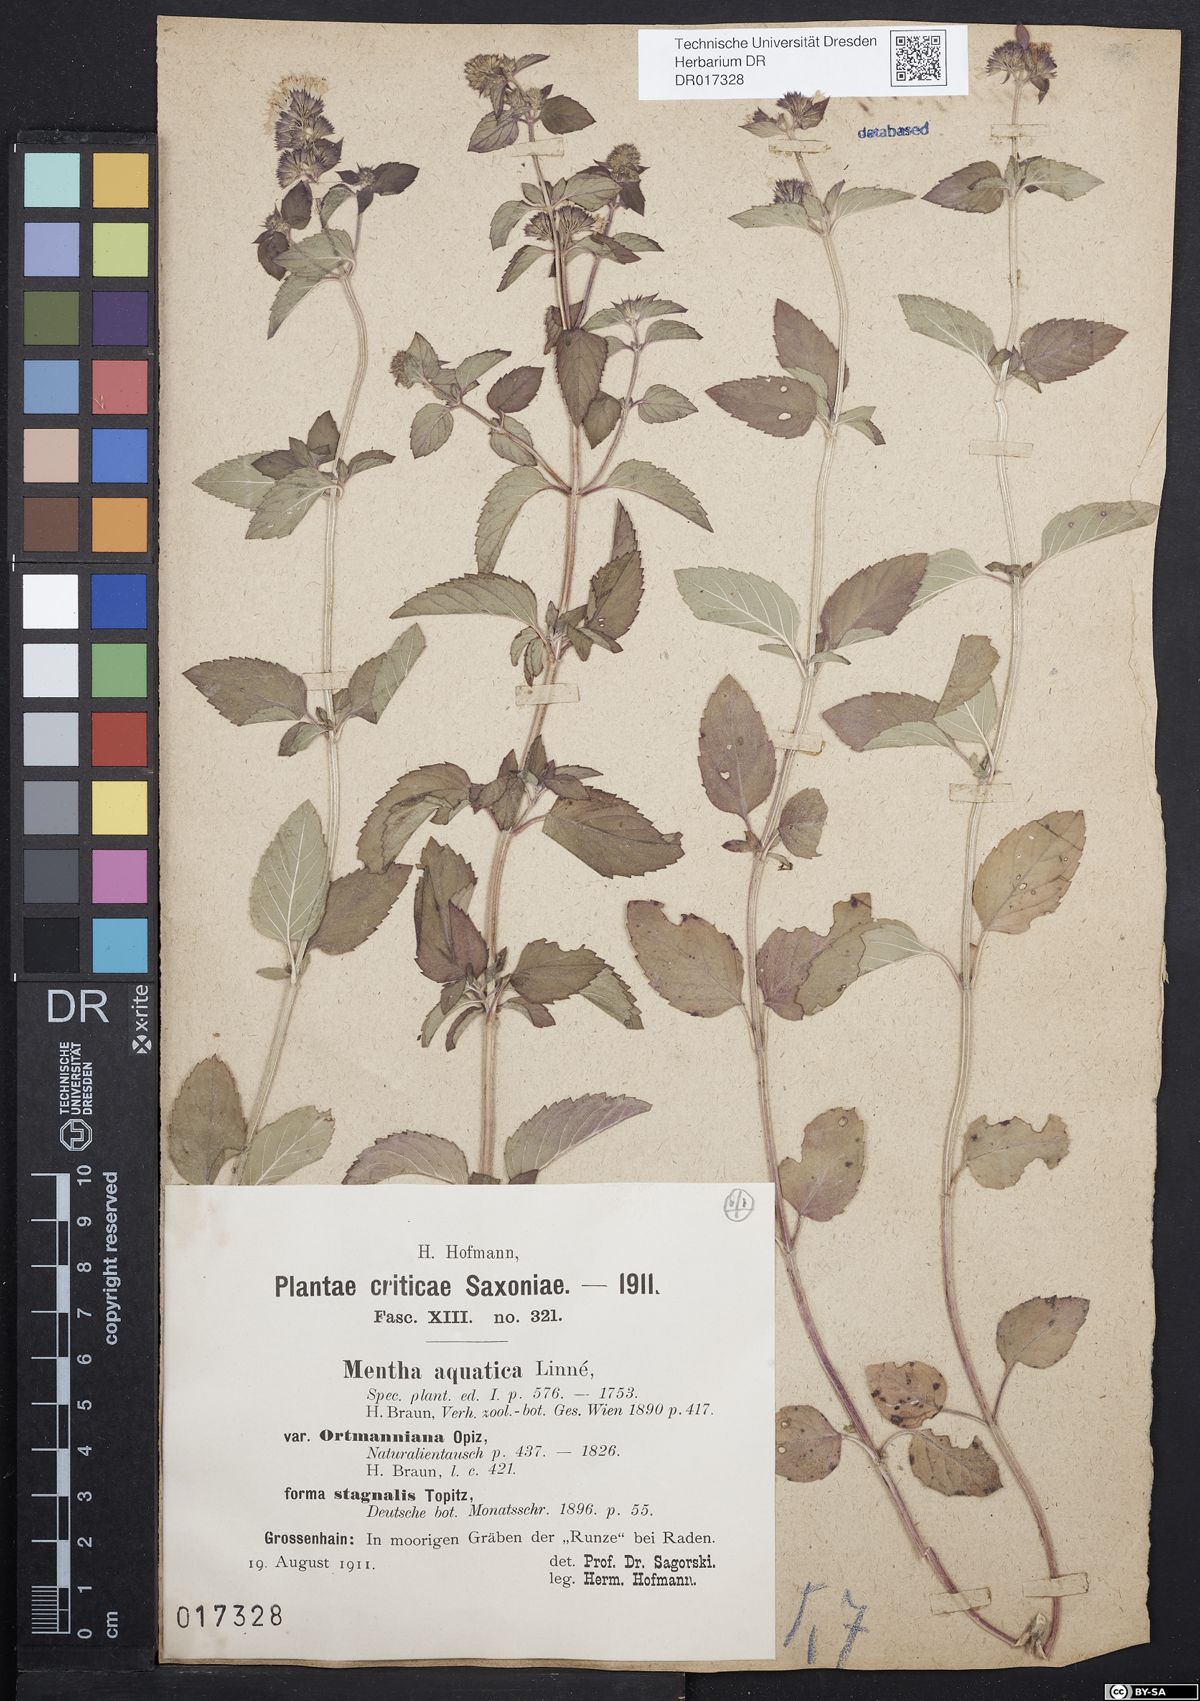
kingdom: Plantae
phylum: Tracheophyta
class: Magnoliopsida
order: Lamiales
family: Lamiaceae
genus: Mentha
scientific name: Mentha aquatica
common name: Water mint
